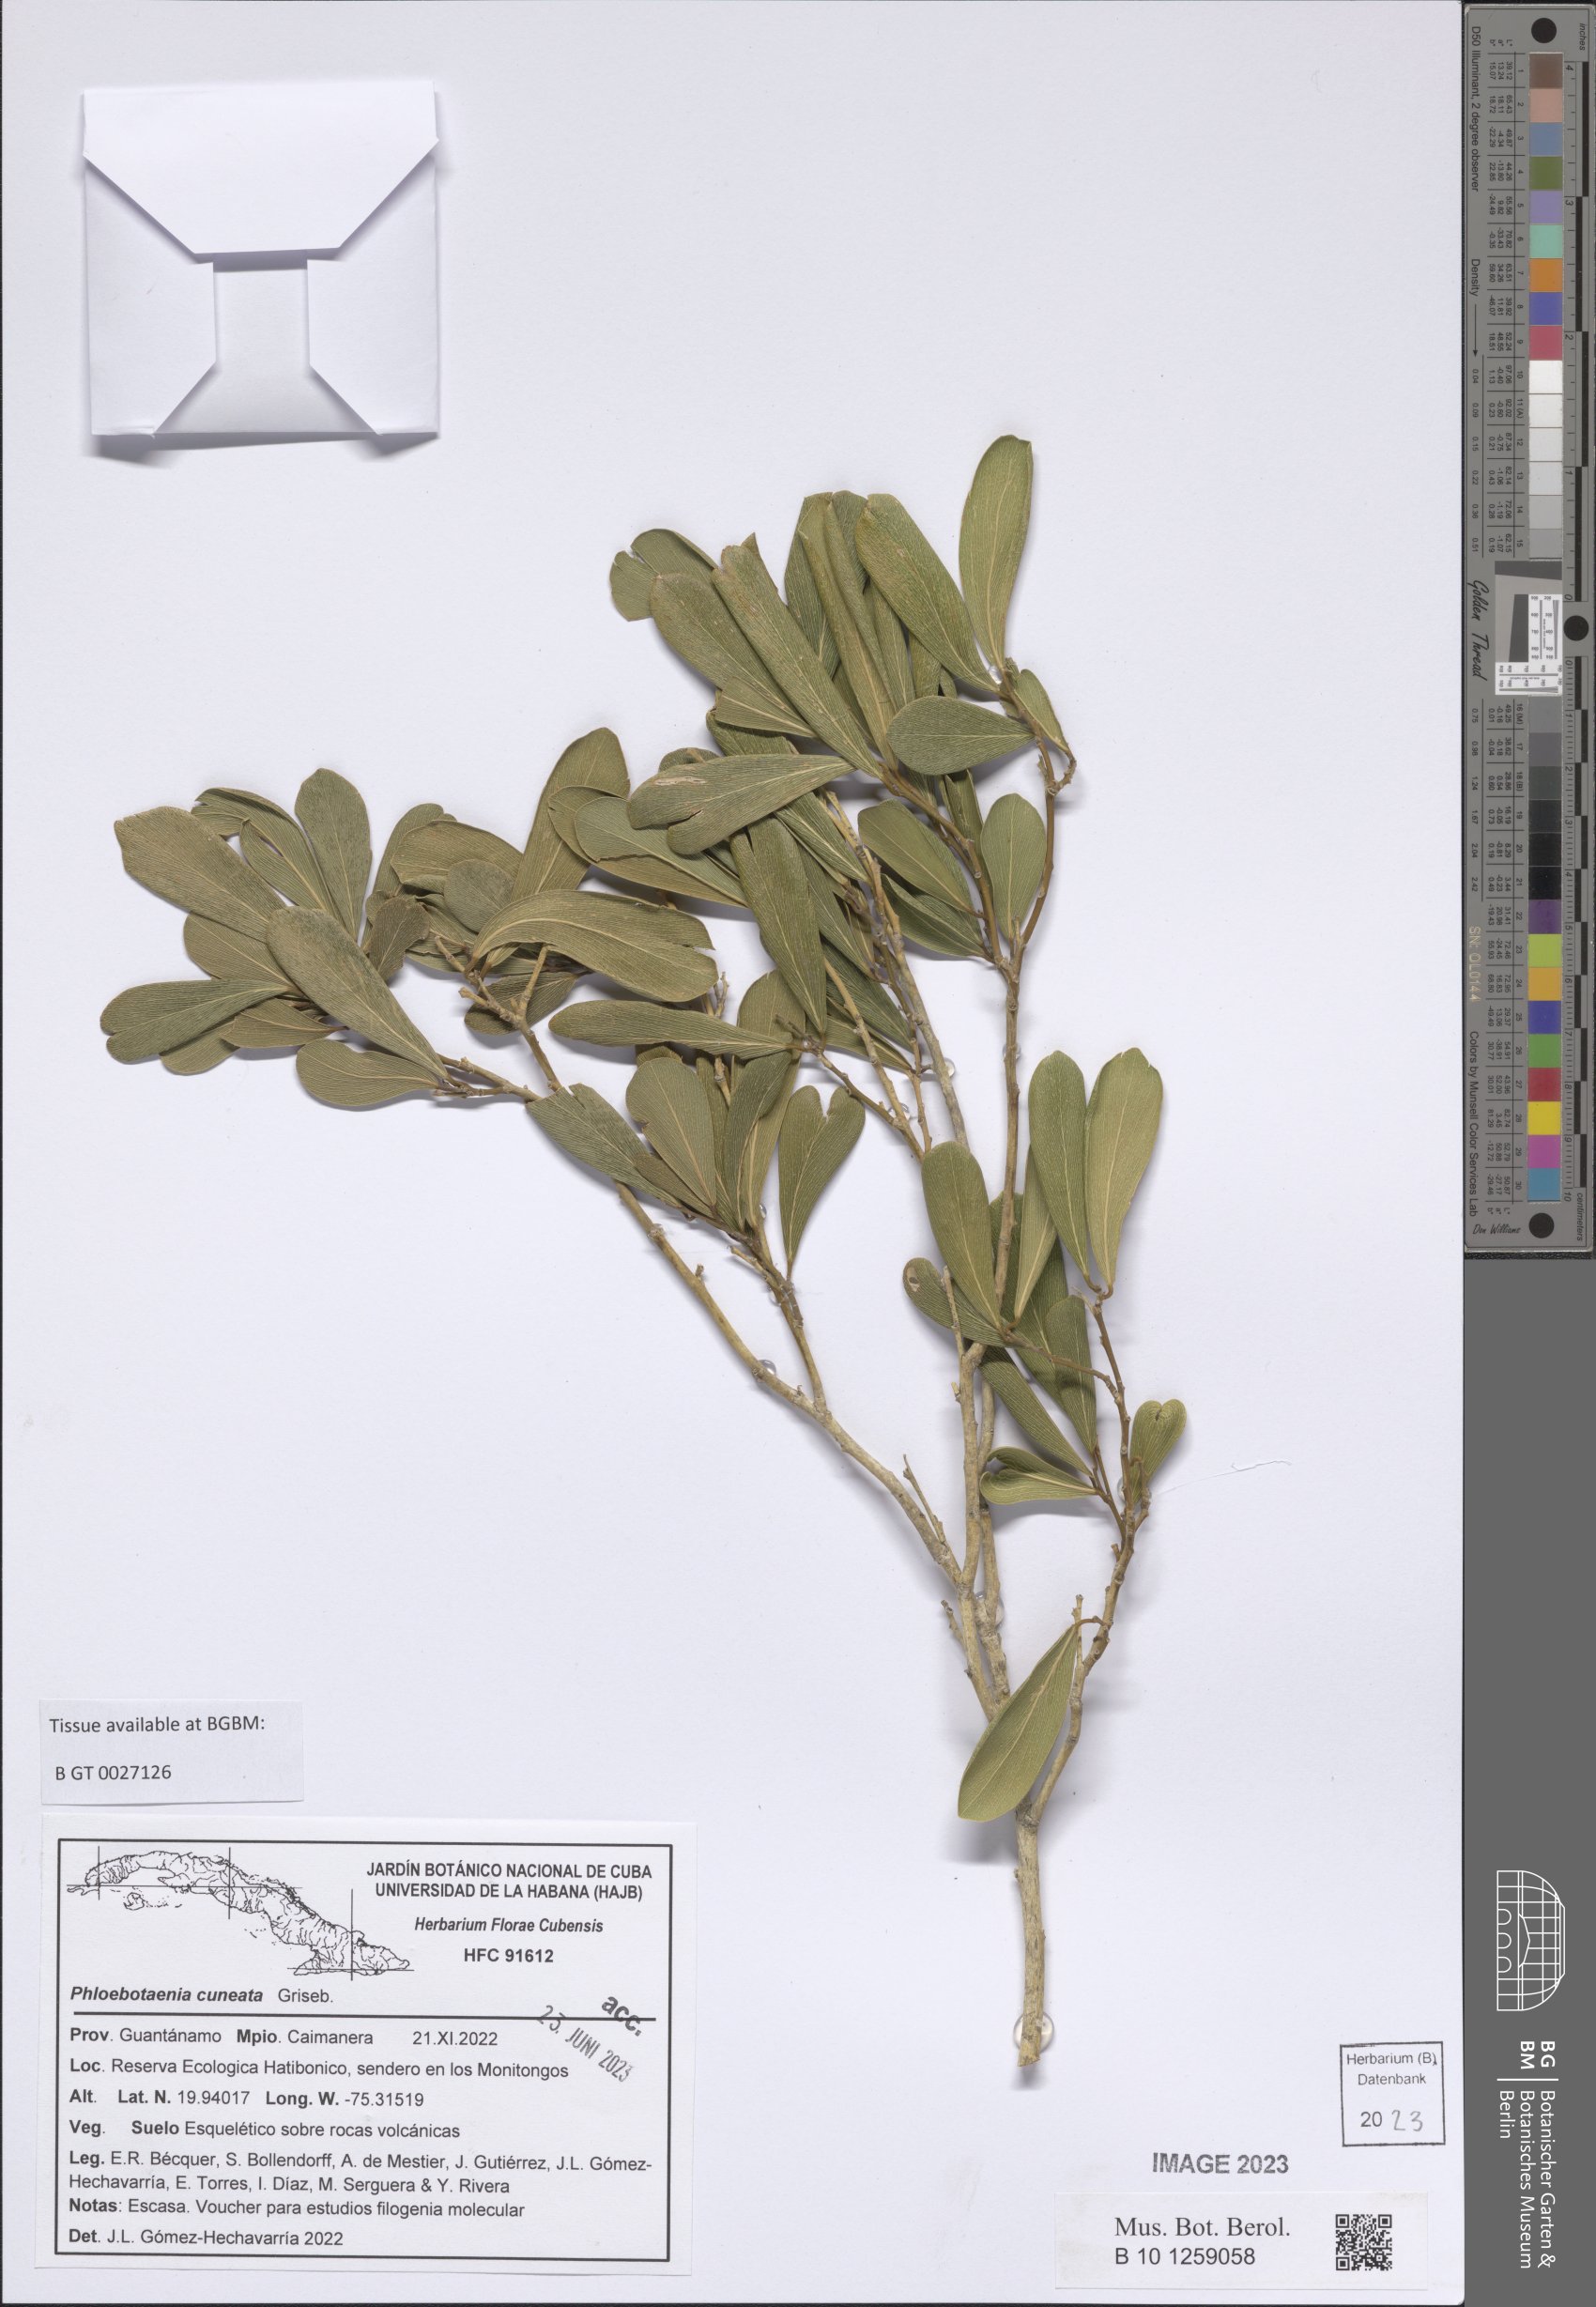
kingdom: Plantae
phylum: Tracheophyta
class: Magnoliopsida
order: Fabales
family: Polygalaceae
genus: Phlebotaenia
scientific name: Phlebotaenia cuneata
